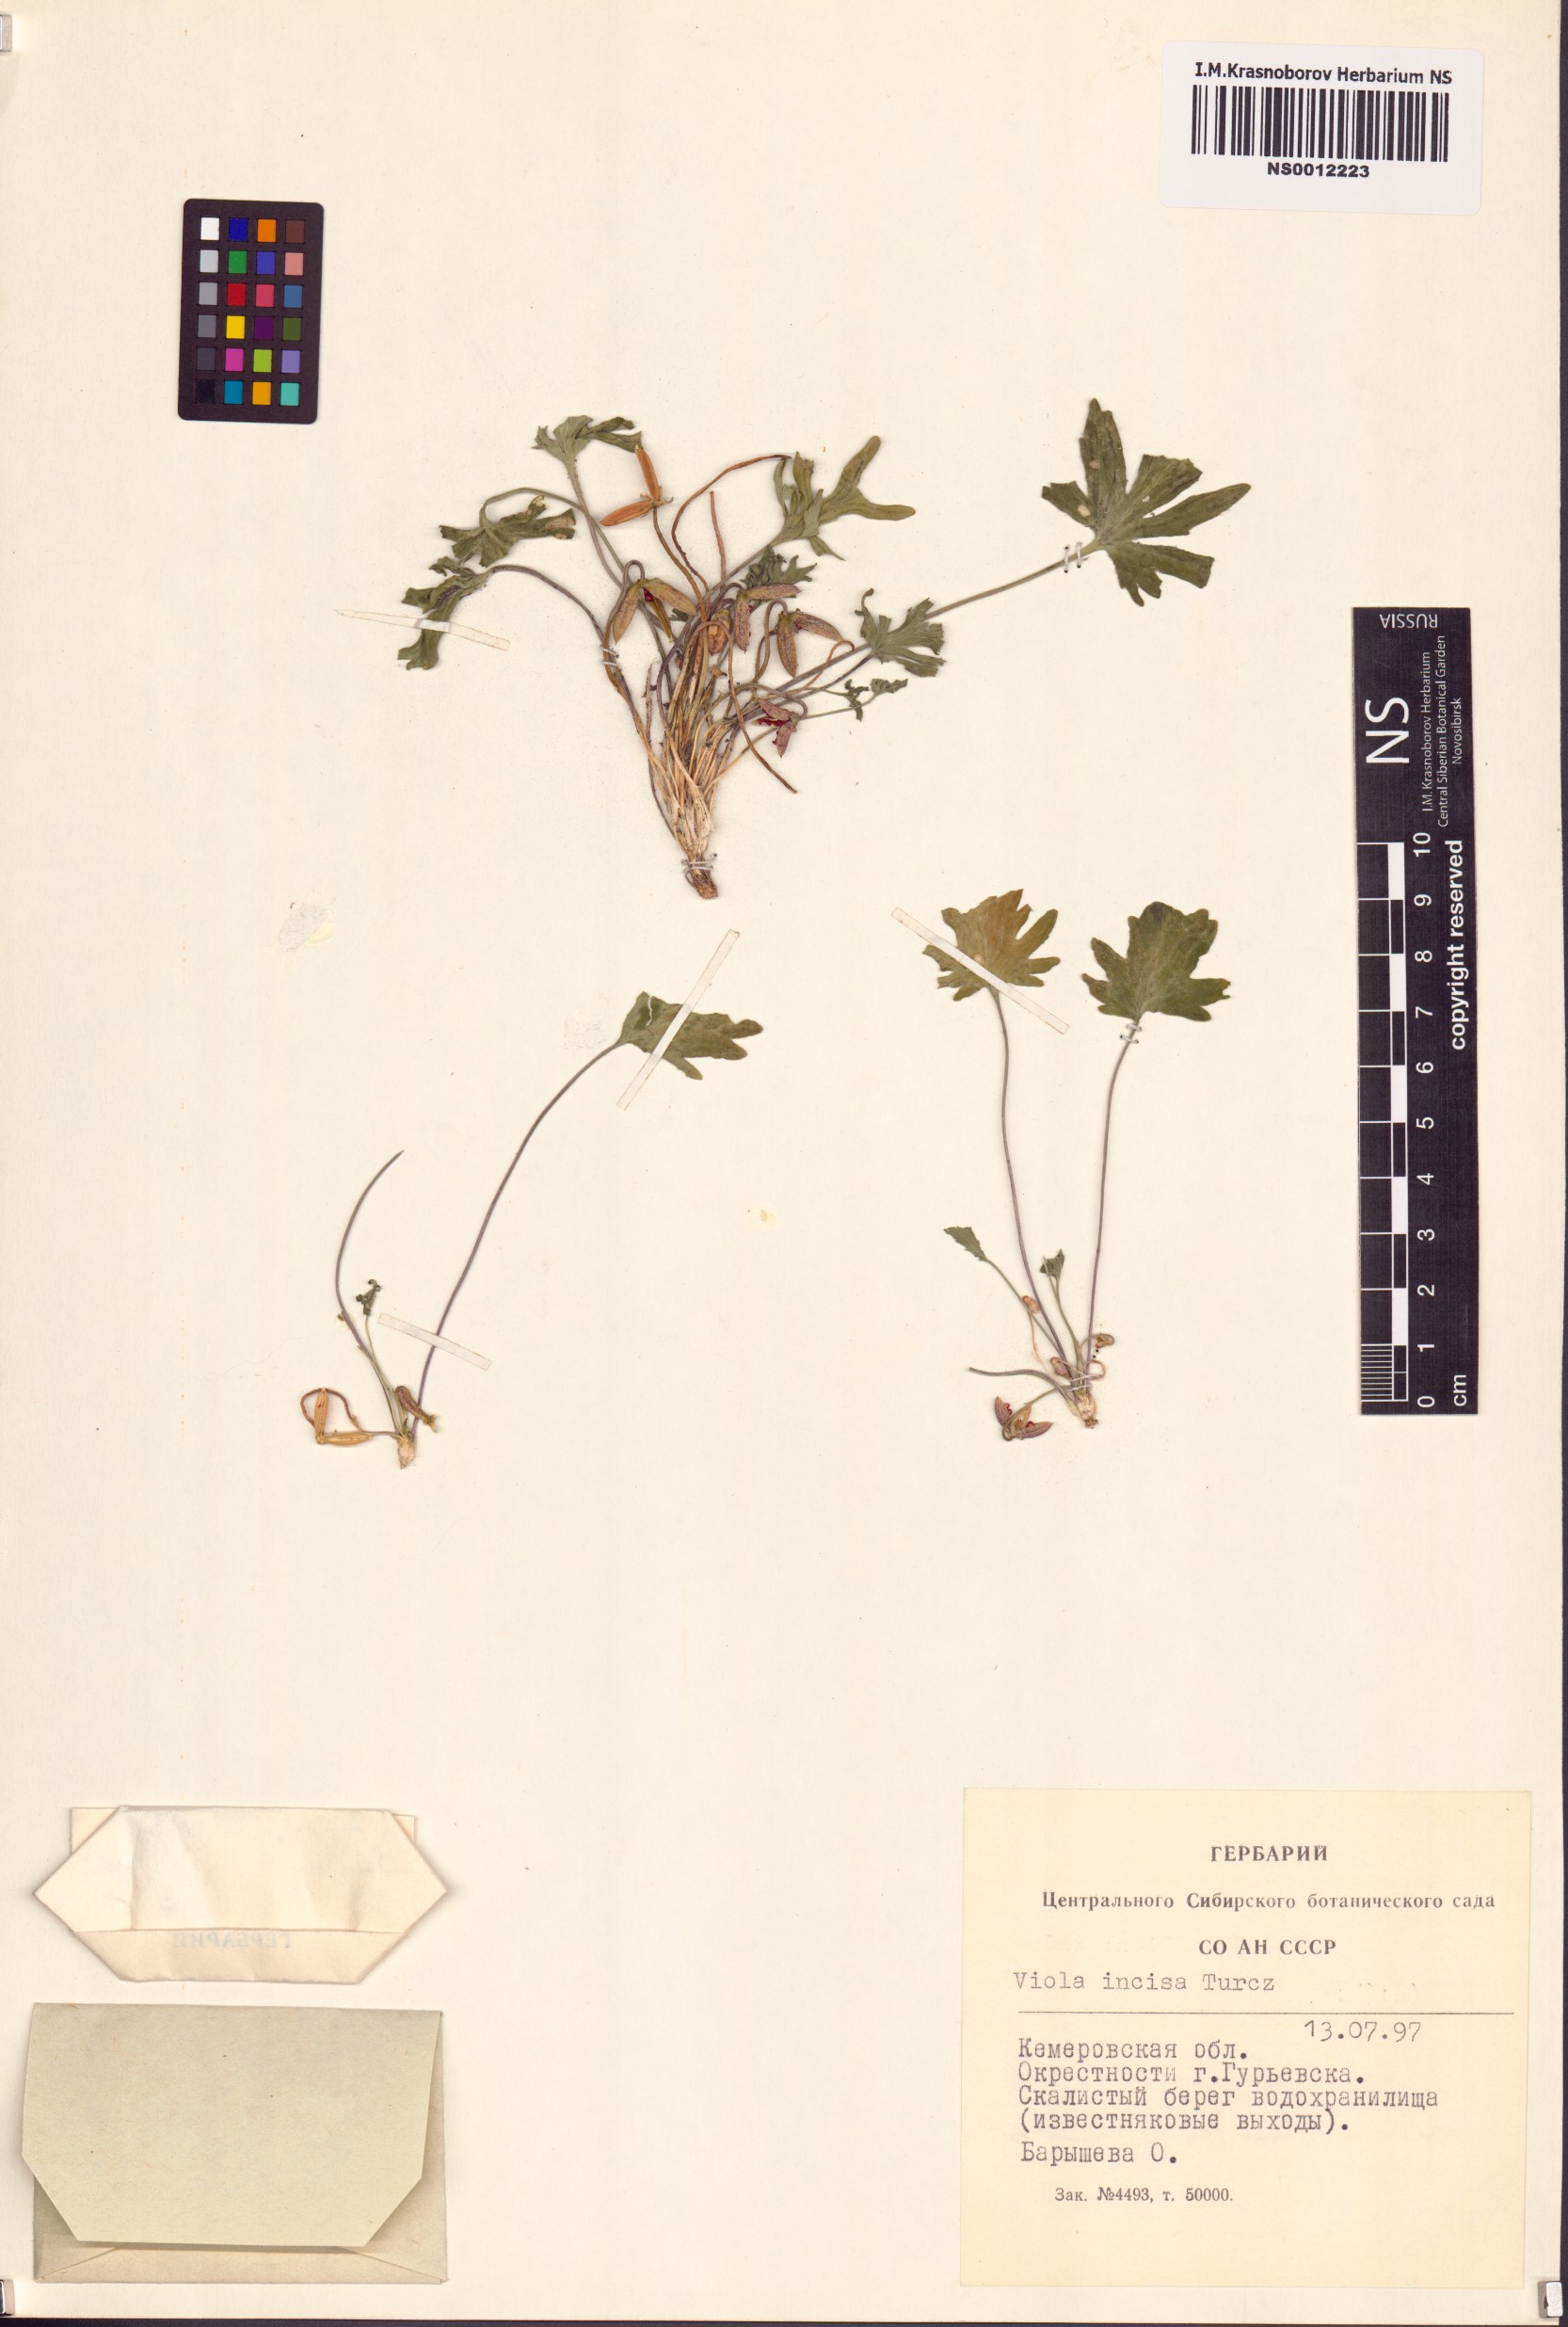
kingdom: Plantae
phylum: Tracheophyta
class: Magnoliopsida
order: Malpighiales
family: Violaceae
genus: Viola
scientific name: Viola incisa
